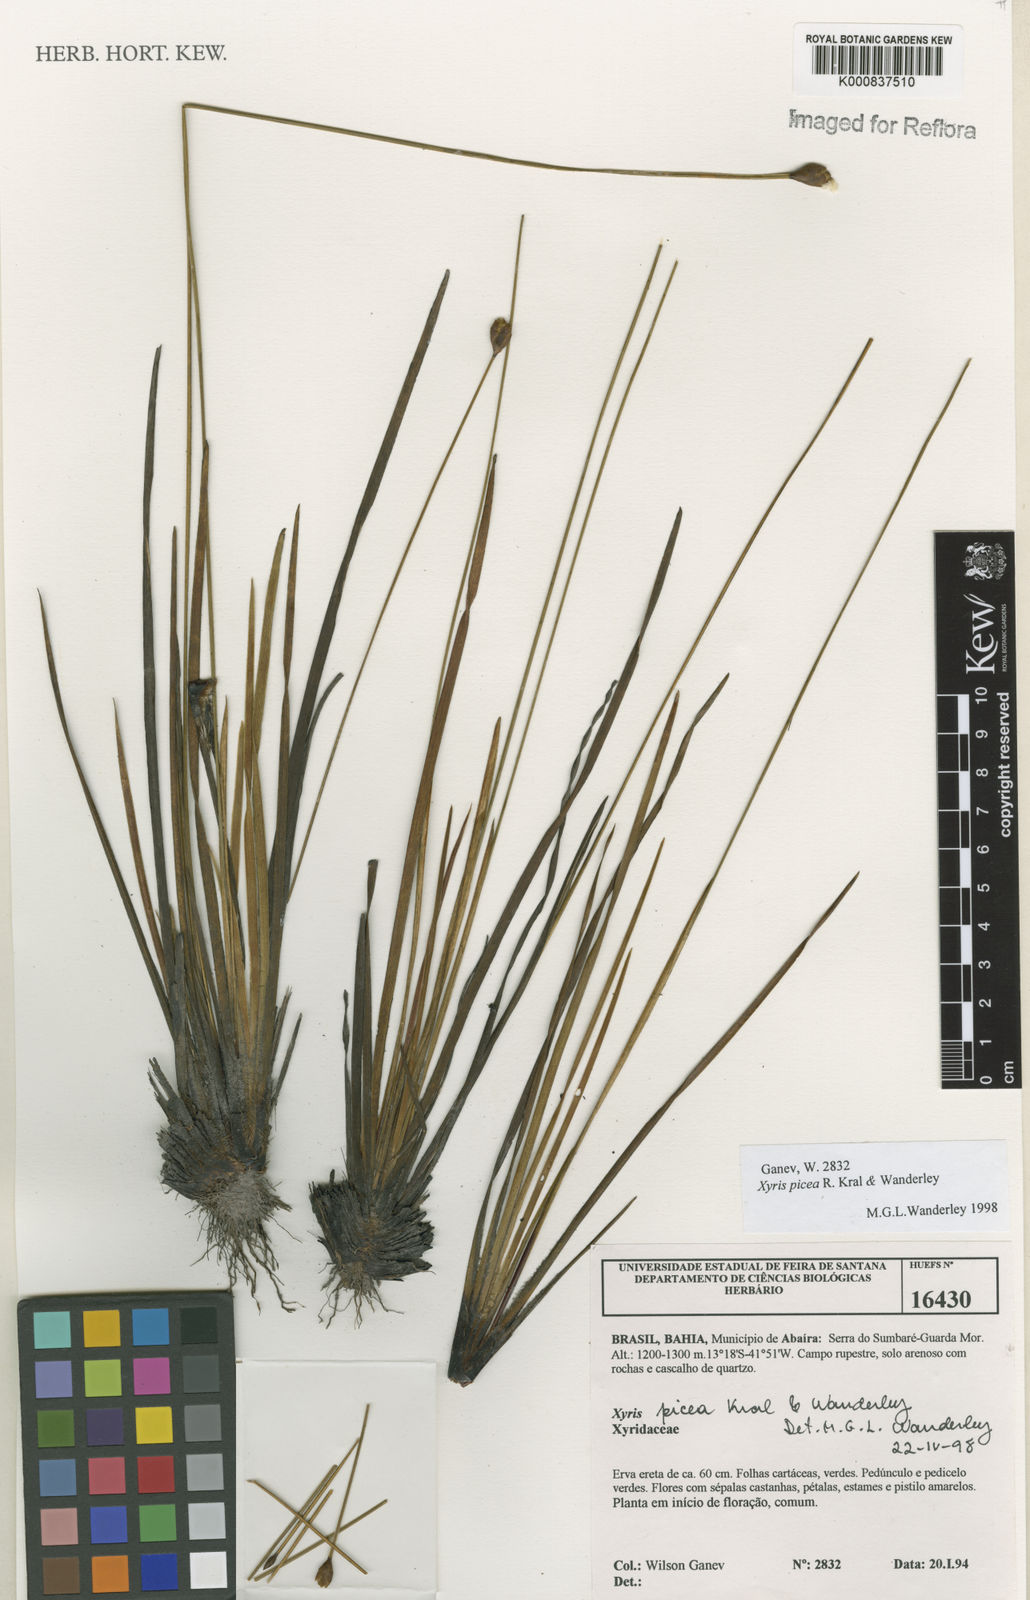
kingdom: Plantae
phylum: Tracheophyta
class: Liliopsida
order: Poales
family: Xyridaceae
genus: Xyris
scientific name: Xyris picea
